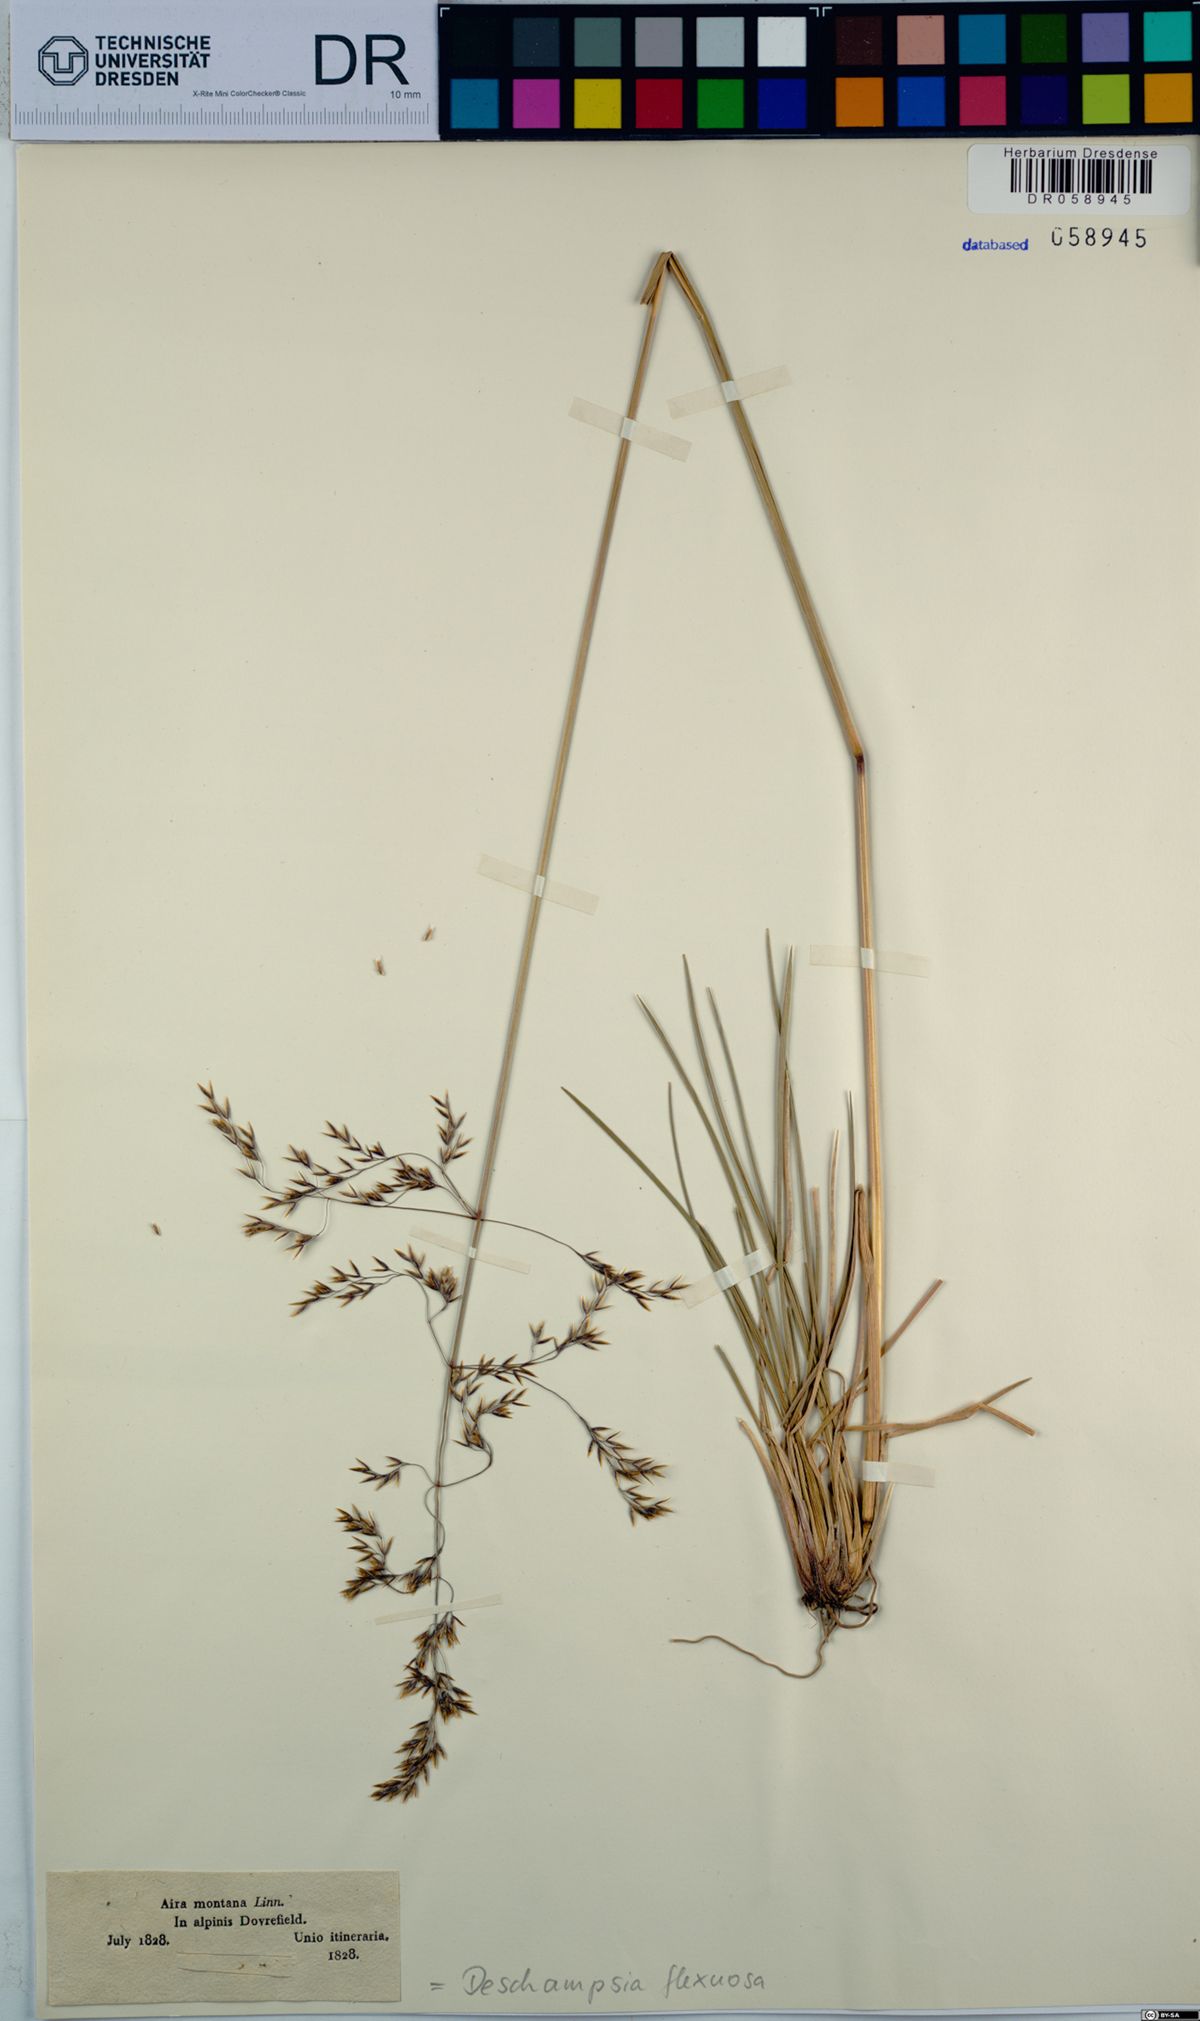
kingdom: Plantae
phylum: Tracheophyta
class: Liliopsida
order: Poales
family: Poaceae
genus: Avenella
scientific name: Avenella flexuosa
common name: Wavy hairgrass
